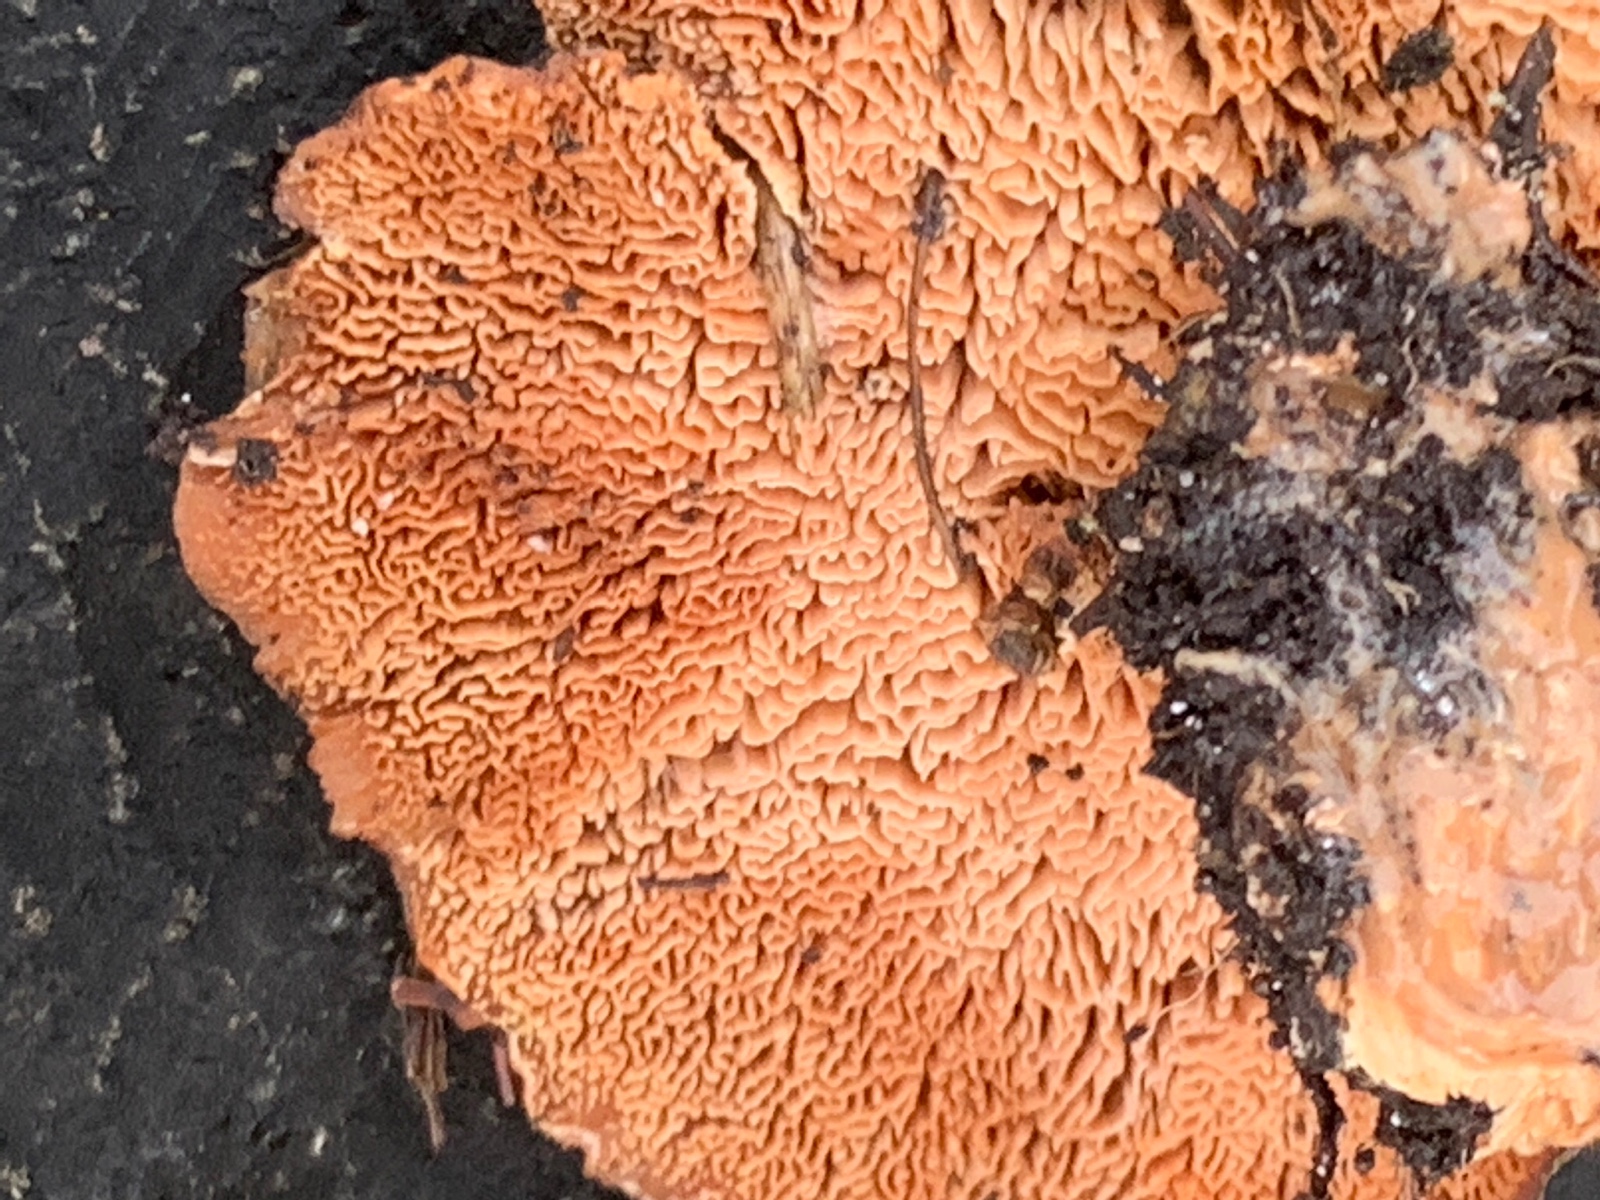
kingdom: Fungi
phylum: Basidiomycota
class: Agaricomycetes
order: Polyporales
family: Podoscyphaceae
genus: Abortiporus
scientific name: Abortiporus biennis
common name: rødmende pjalteporesvamp
